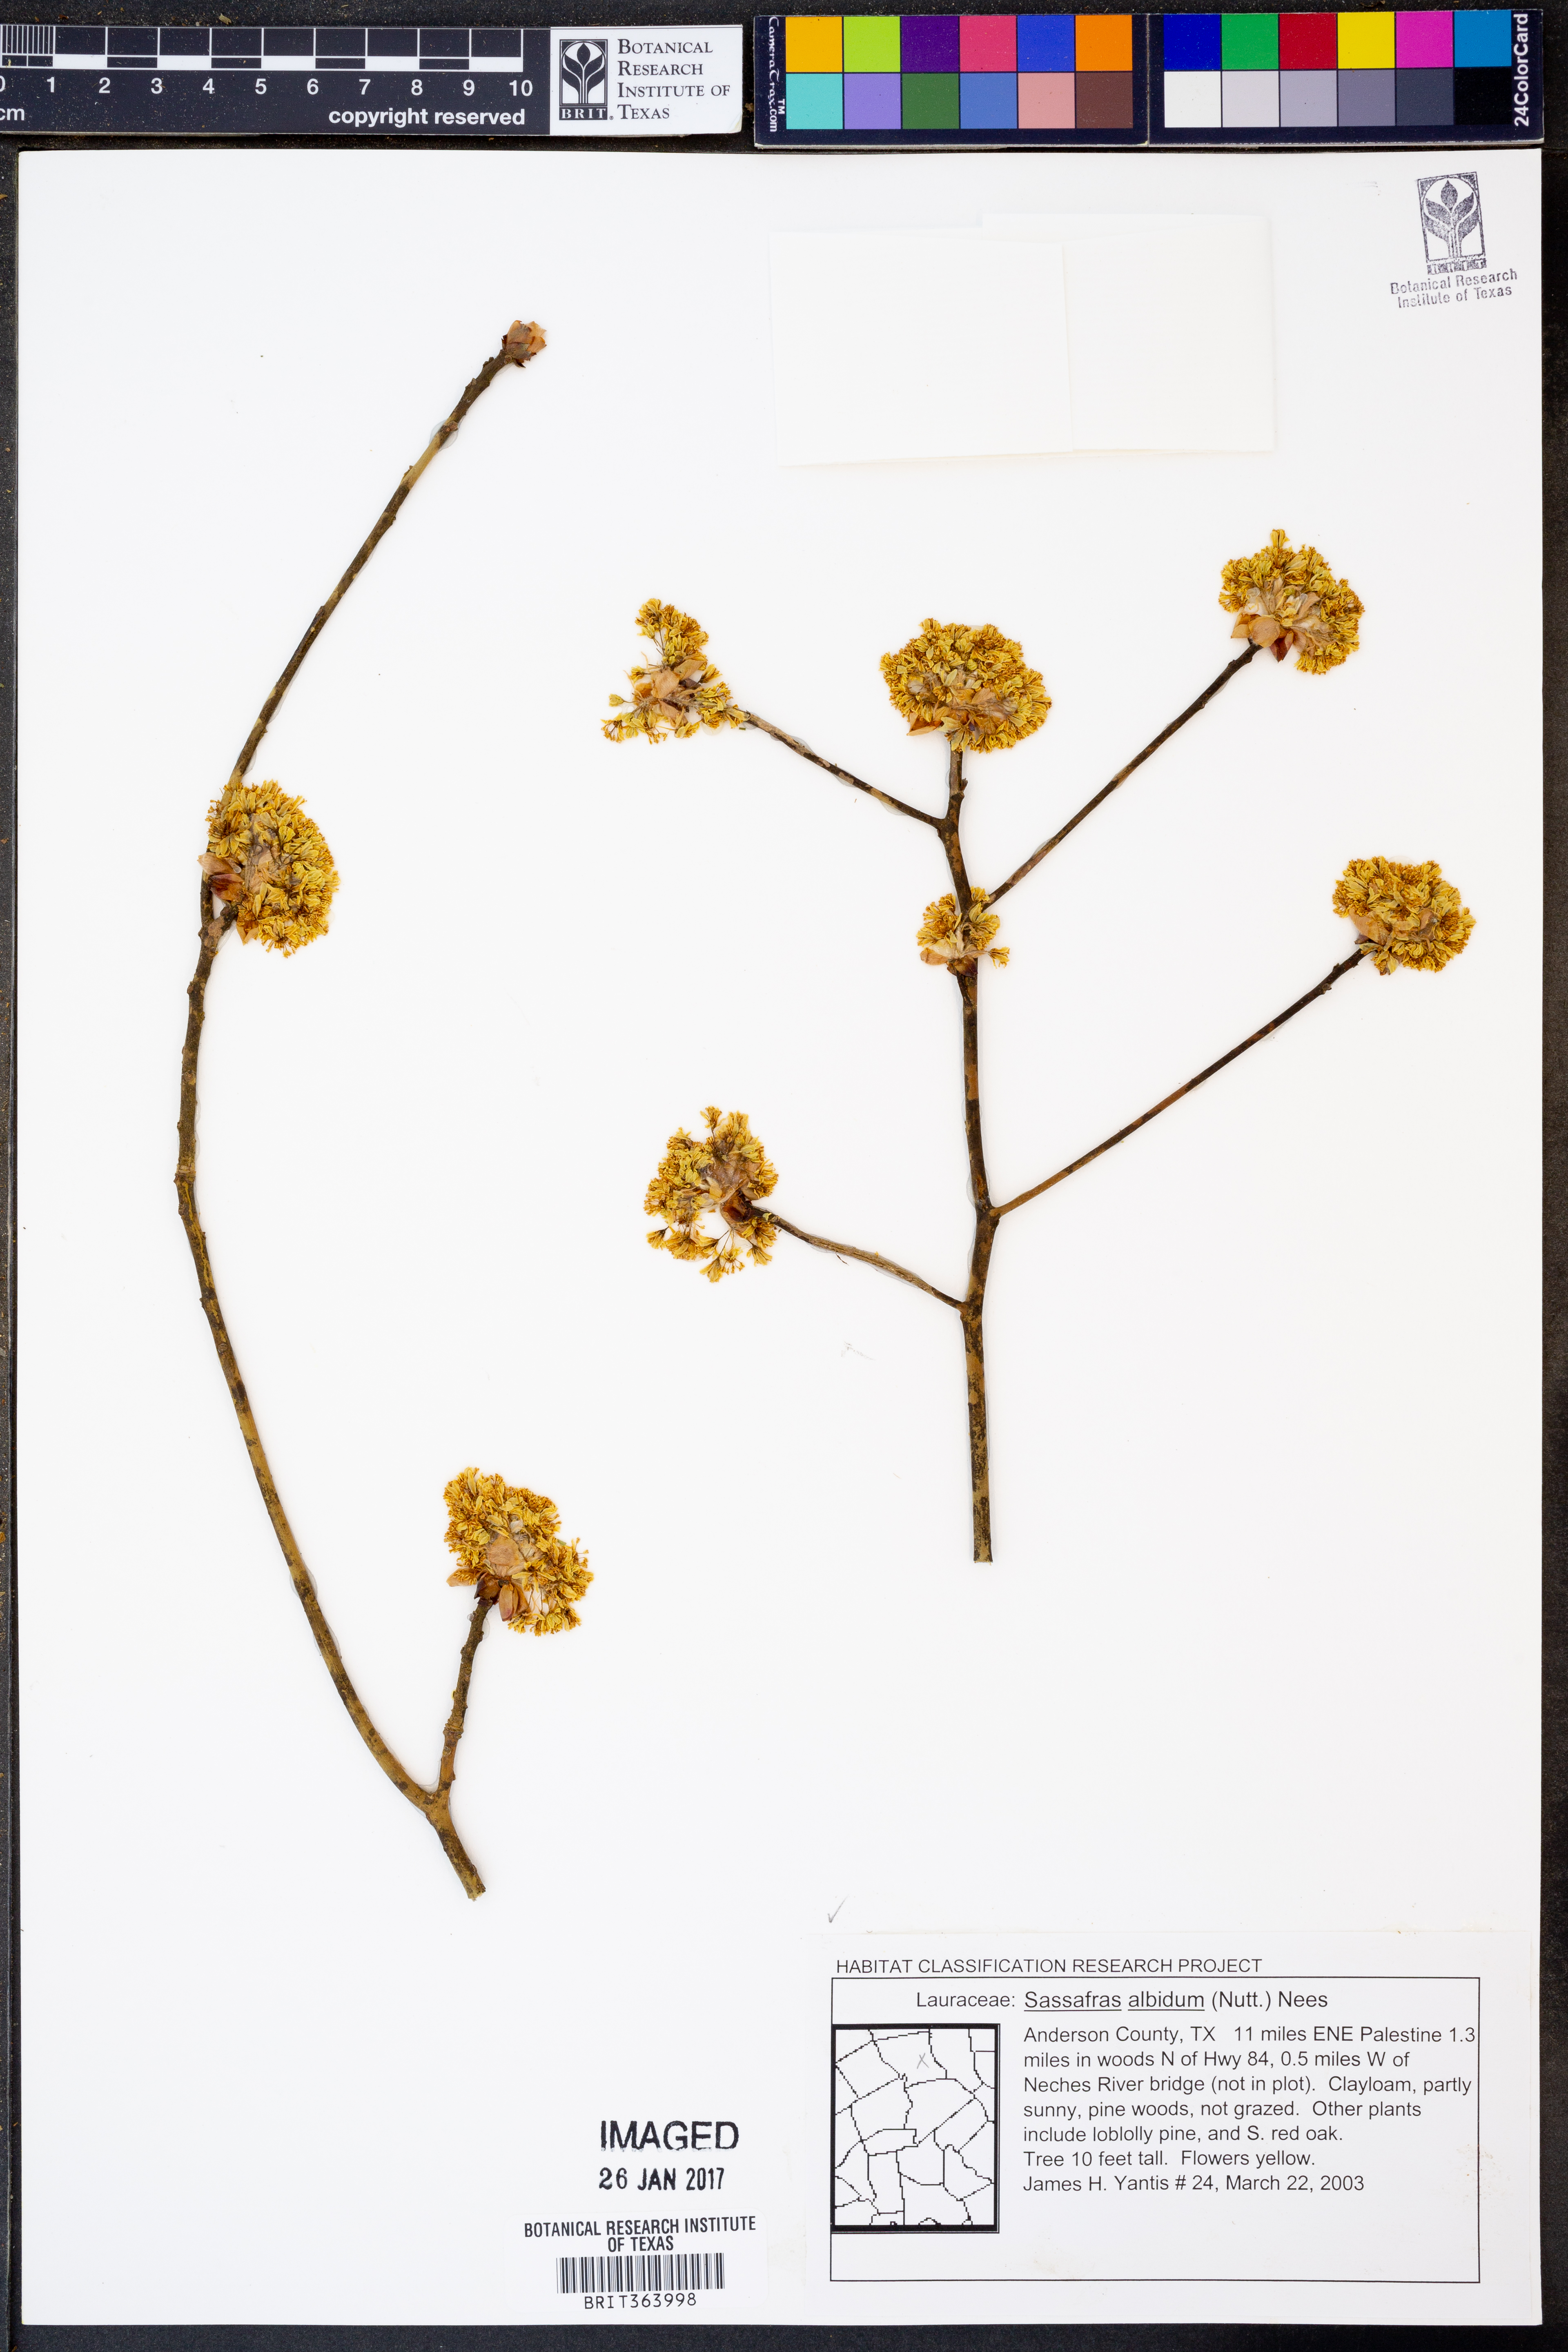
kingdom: Plantae
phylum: Tracheophyta
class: Magnoliopsida
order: Laurales
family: Lauraceae
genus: Sassafras
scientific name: Sassafras albidum
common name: Sassafras
